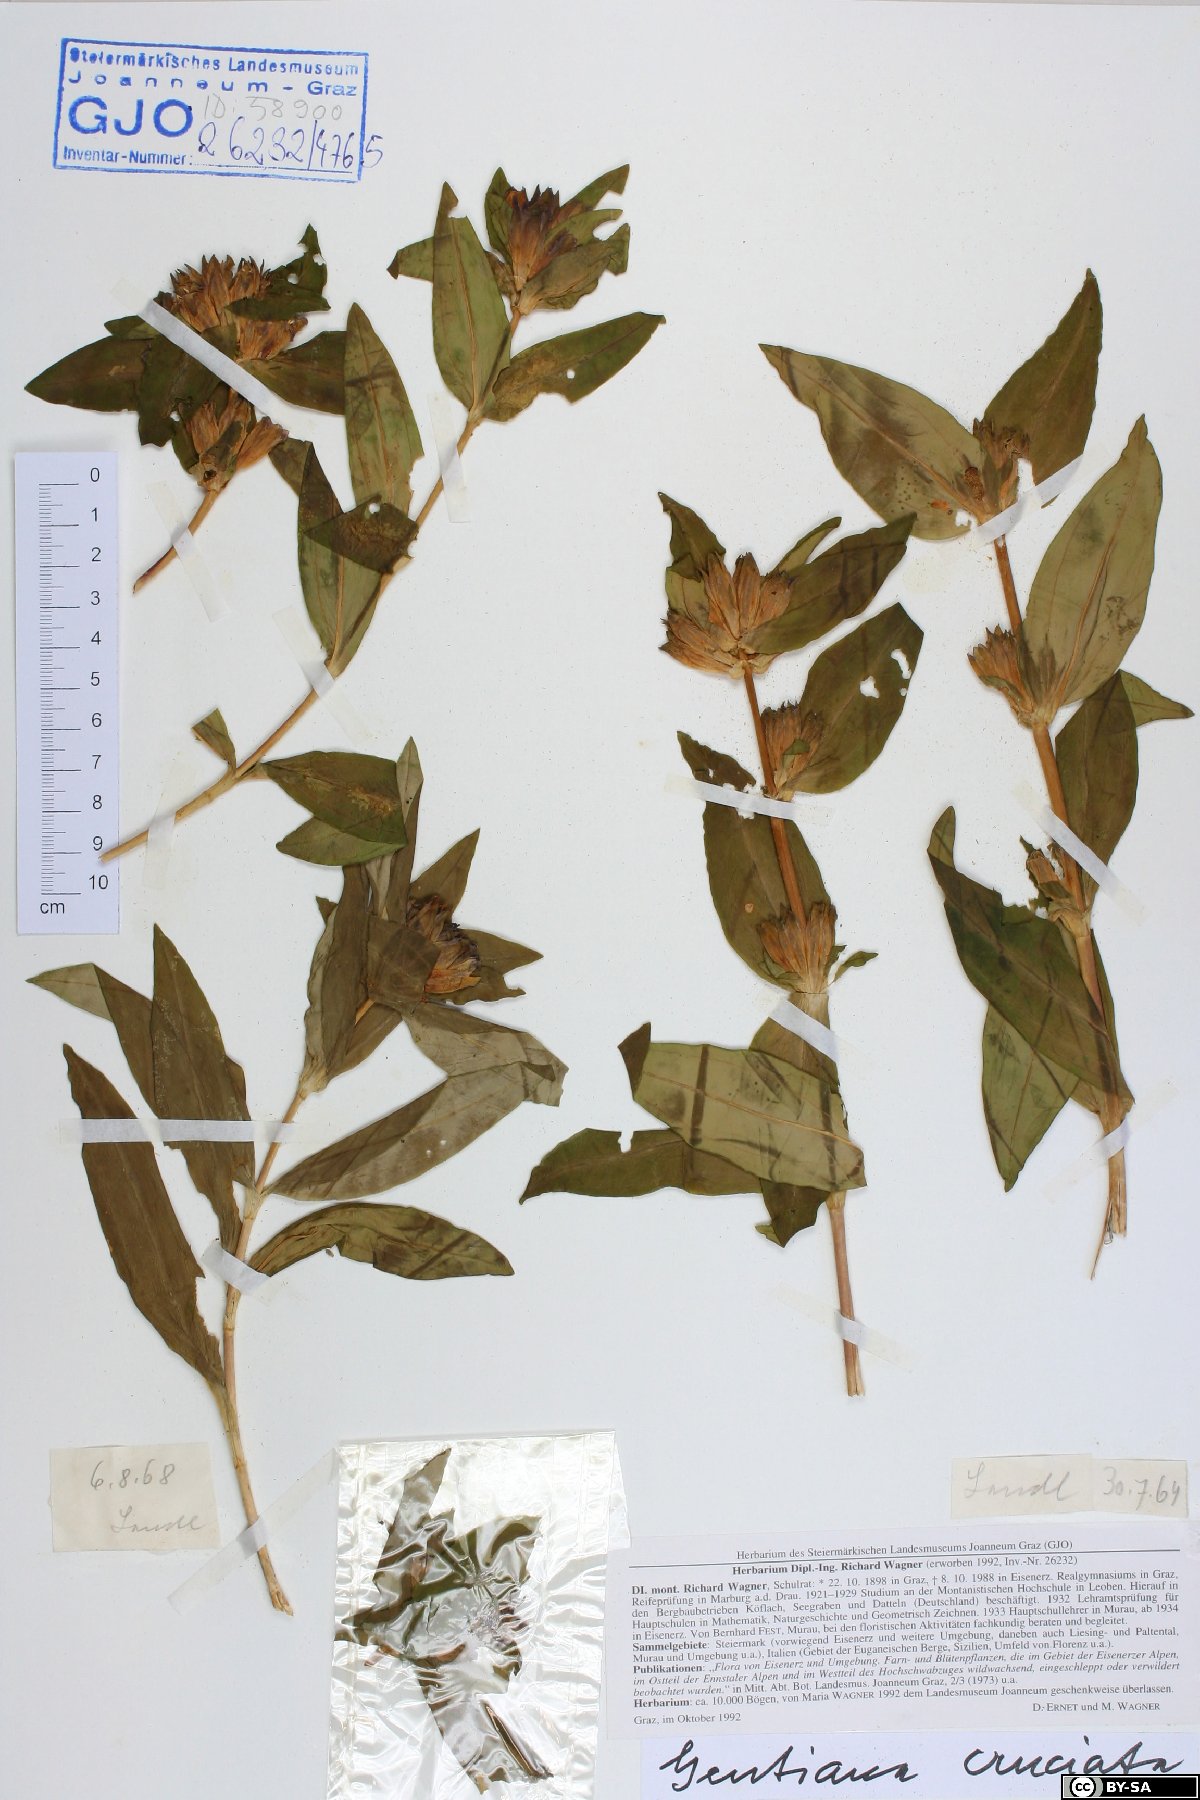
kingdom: Plantae
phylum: Tracheophyta
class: Magnoliopsida
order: Gentianales
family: Gentianaceae
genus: Gentiana
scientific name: Gentiana cruciata
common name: Cross gentian
